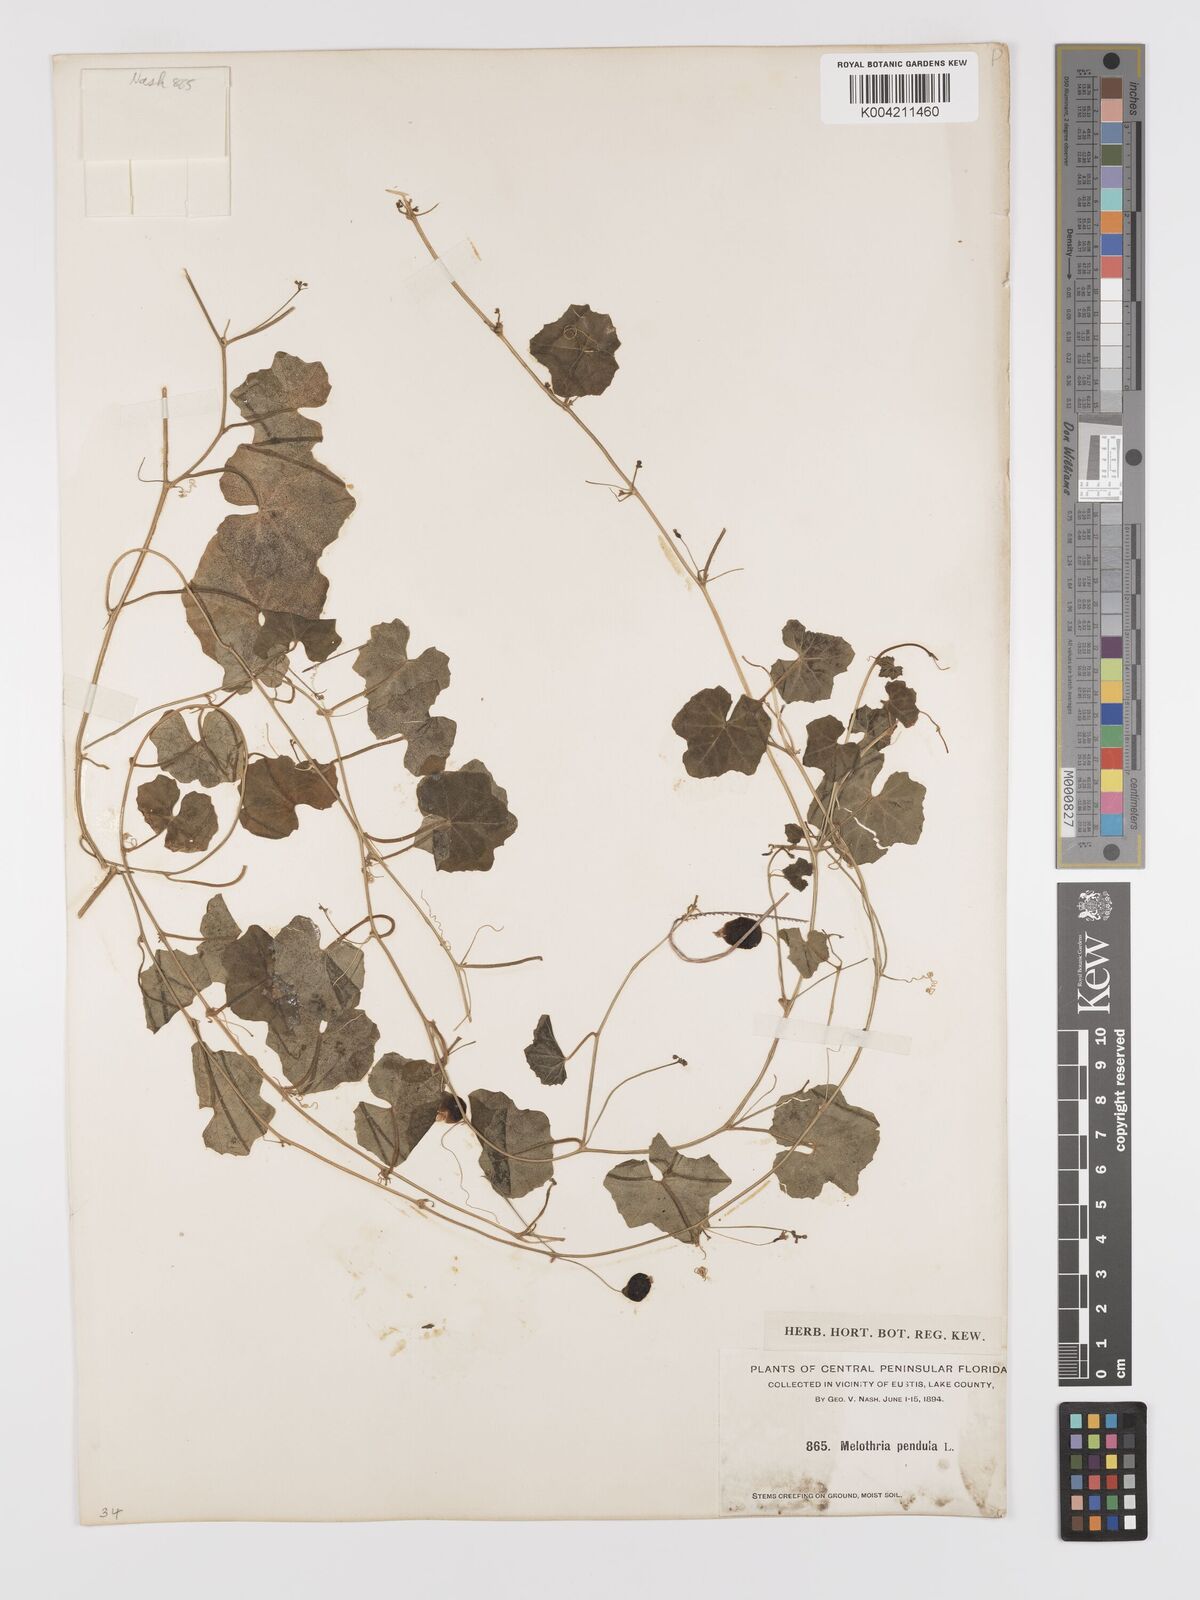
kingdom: Plantae
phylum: Tracheophyta
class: Magnoliopsida
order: Cucurbitales
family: Cucurbitaceae
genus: Melothria
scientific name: Melothria pendula
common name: Creeping-cucumber
